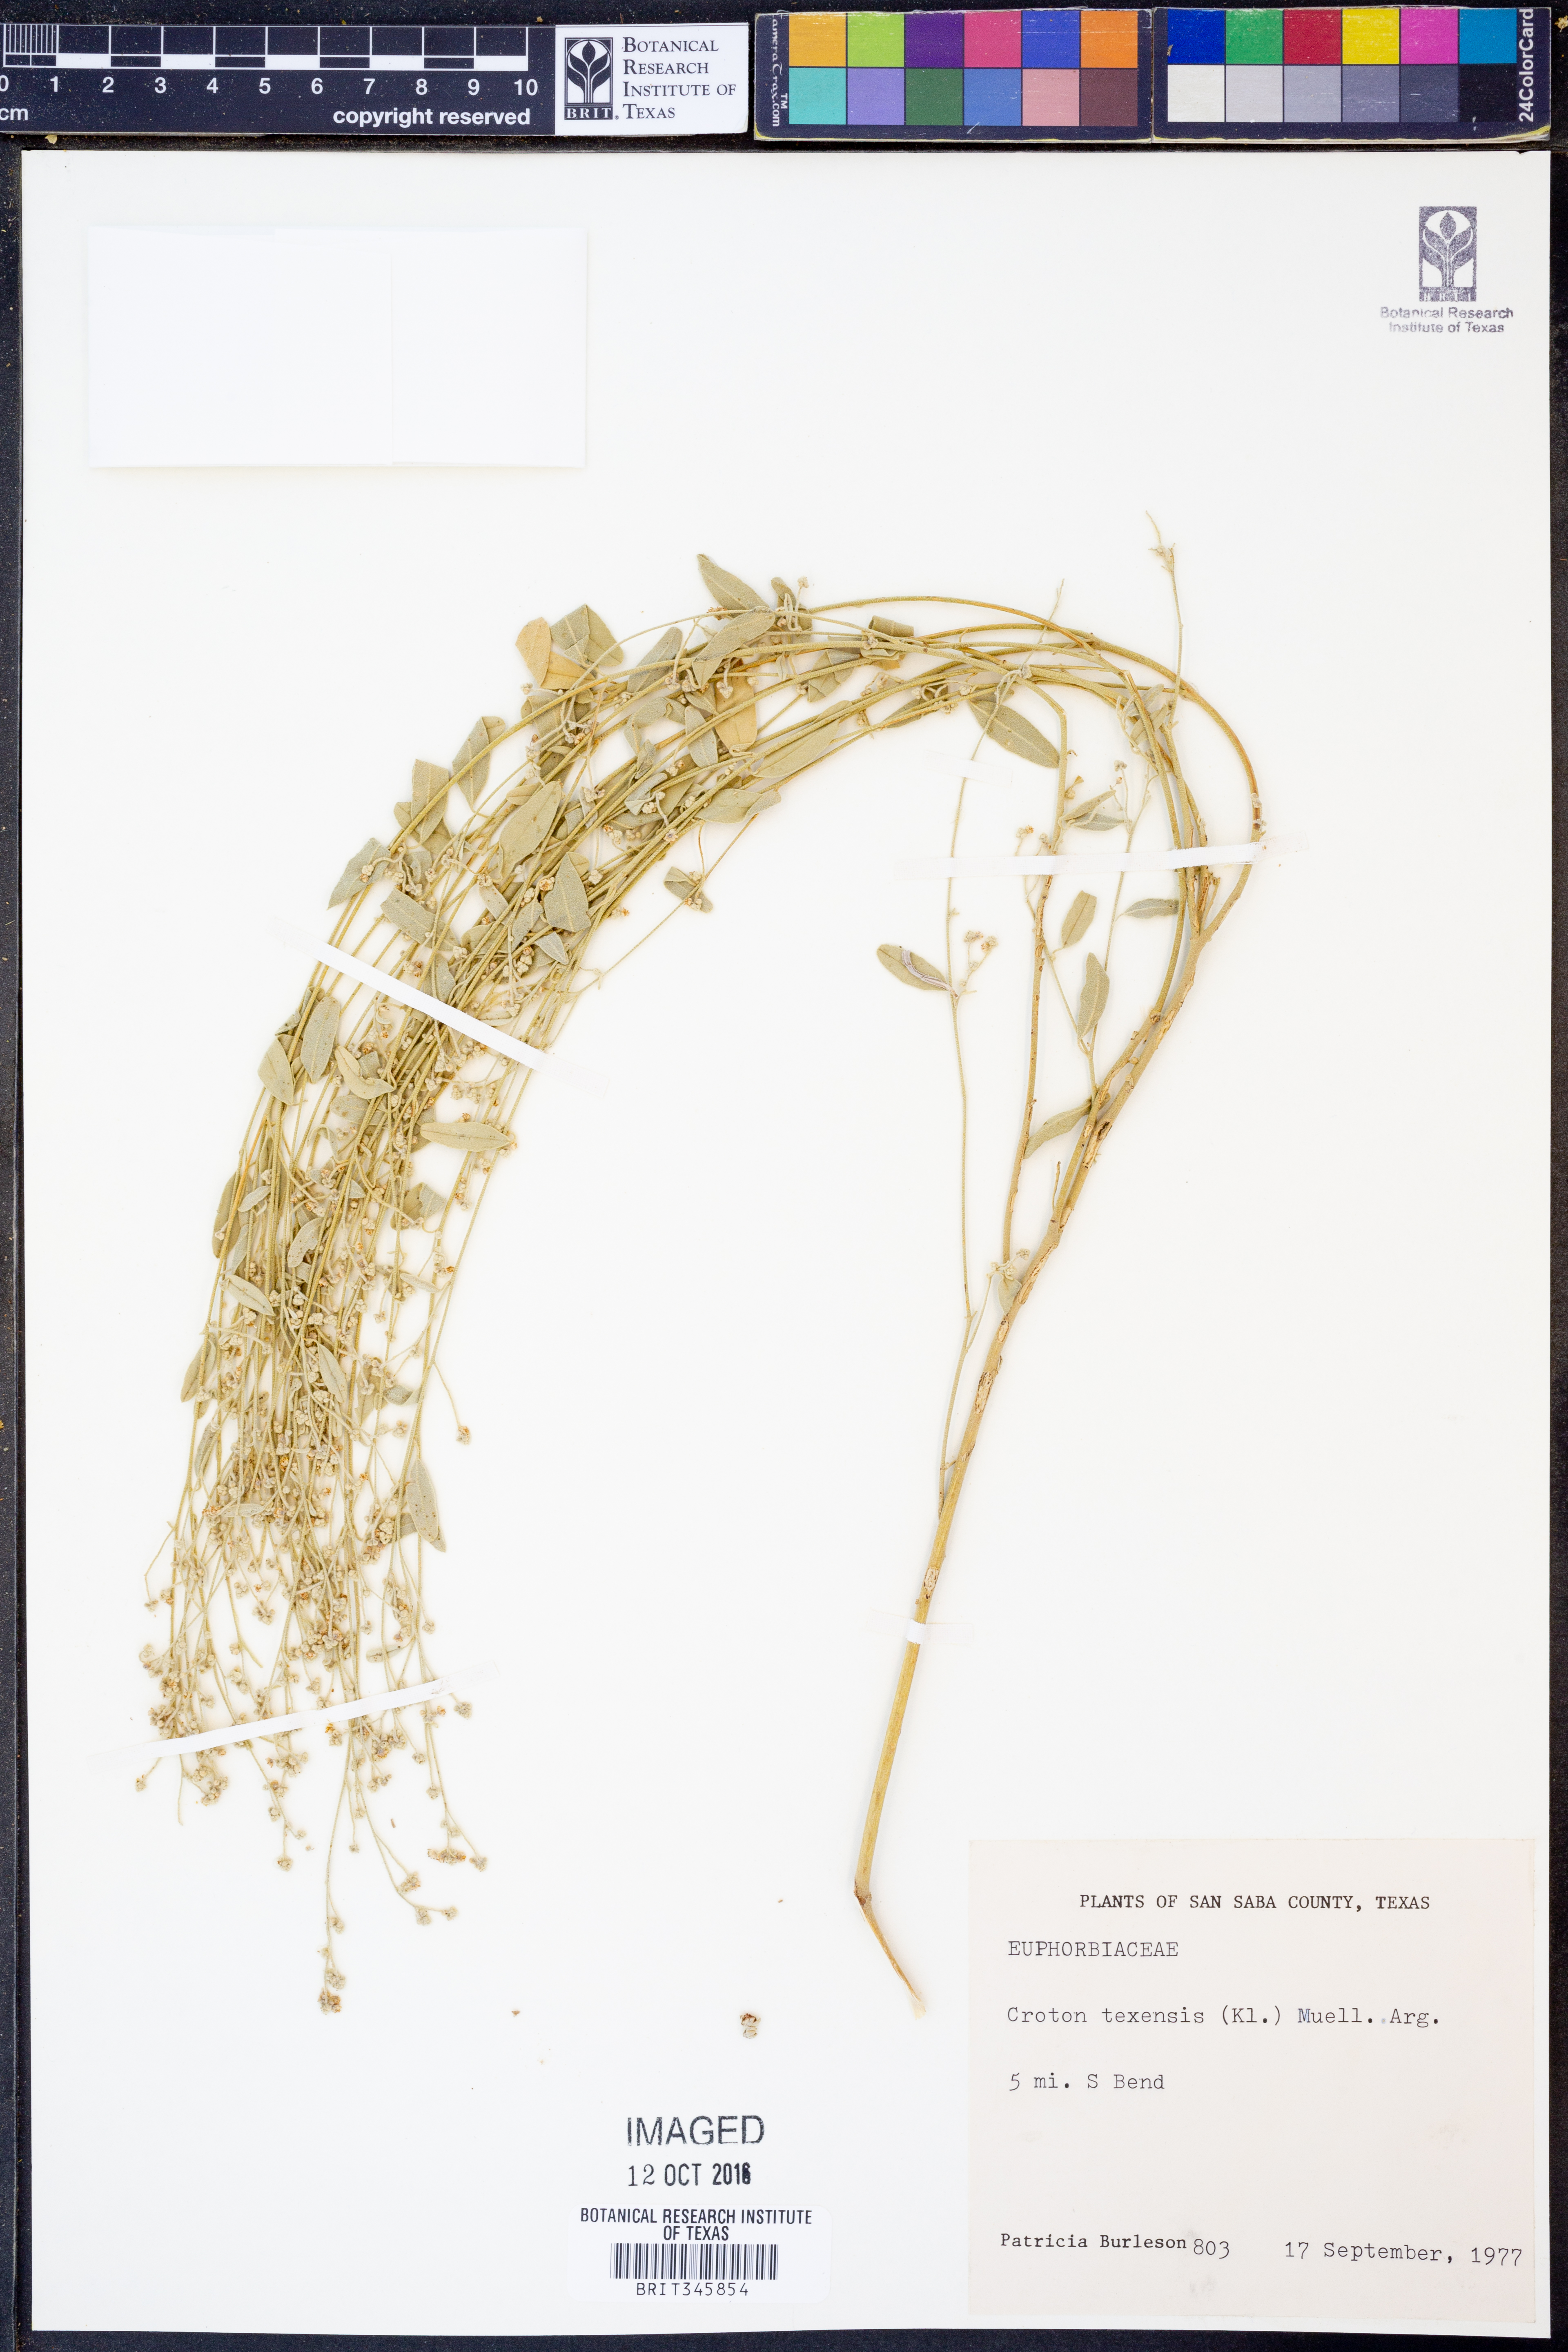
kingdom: Plantae
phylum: Tracheophyta
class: Magnoliopsida
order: Malpighiales
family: Euphorbiaceae
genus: Croton
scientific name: Croton texensis
